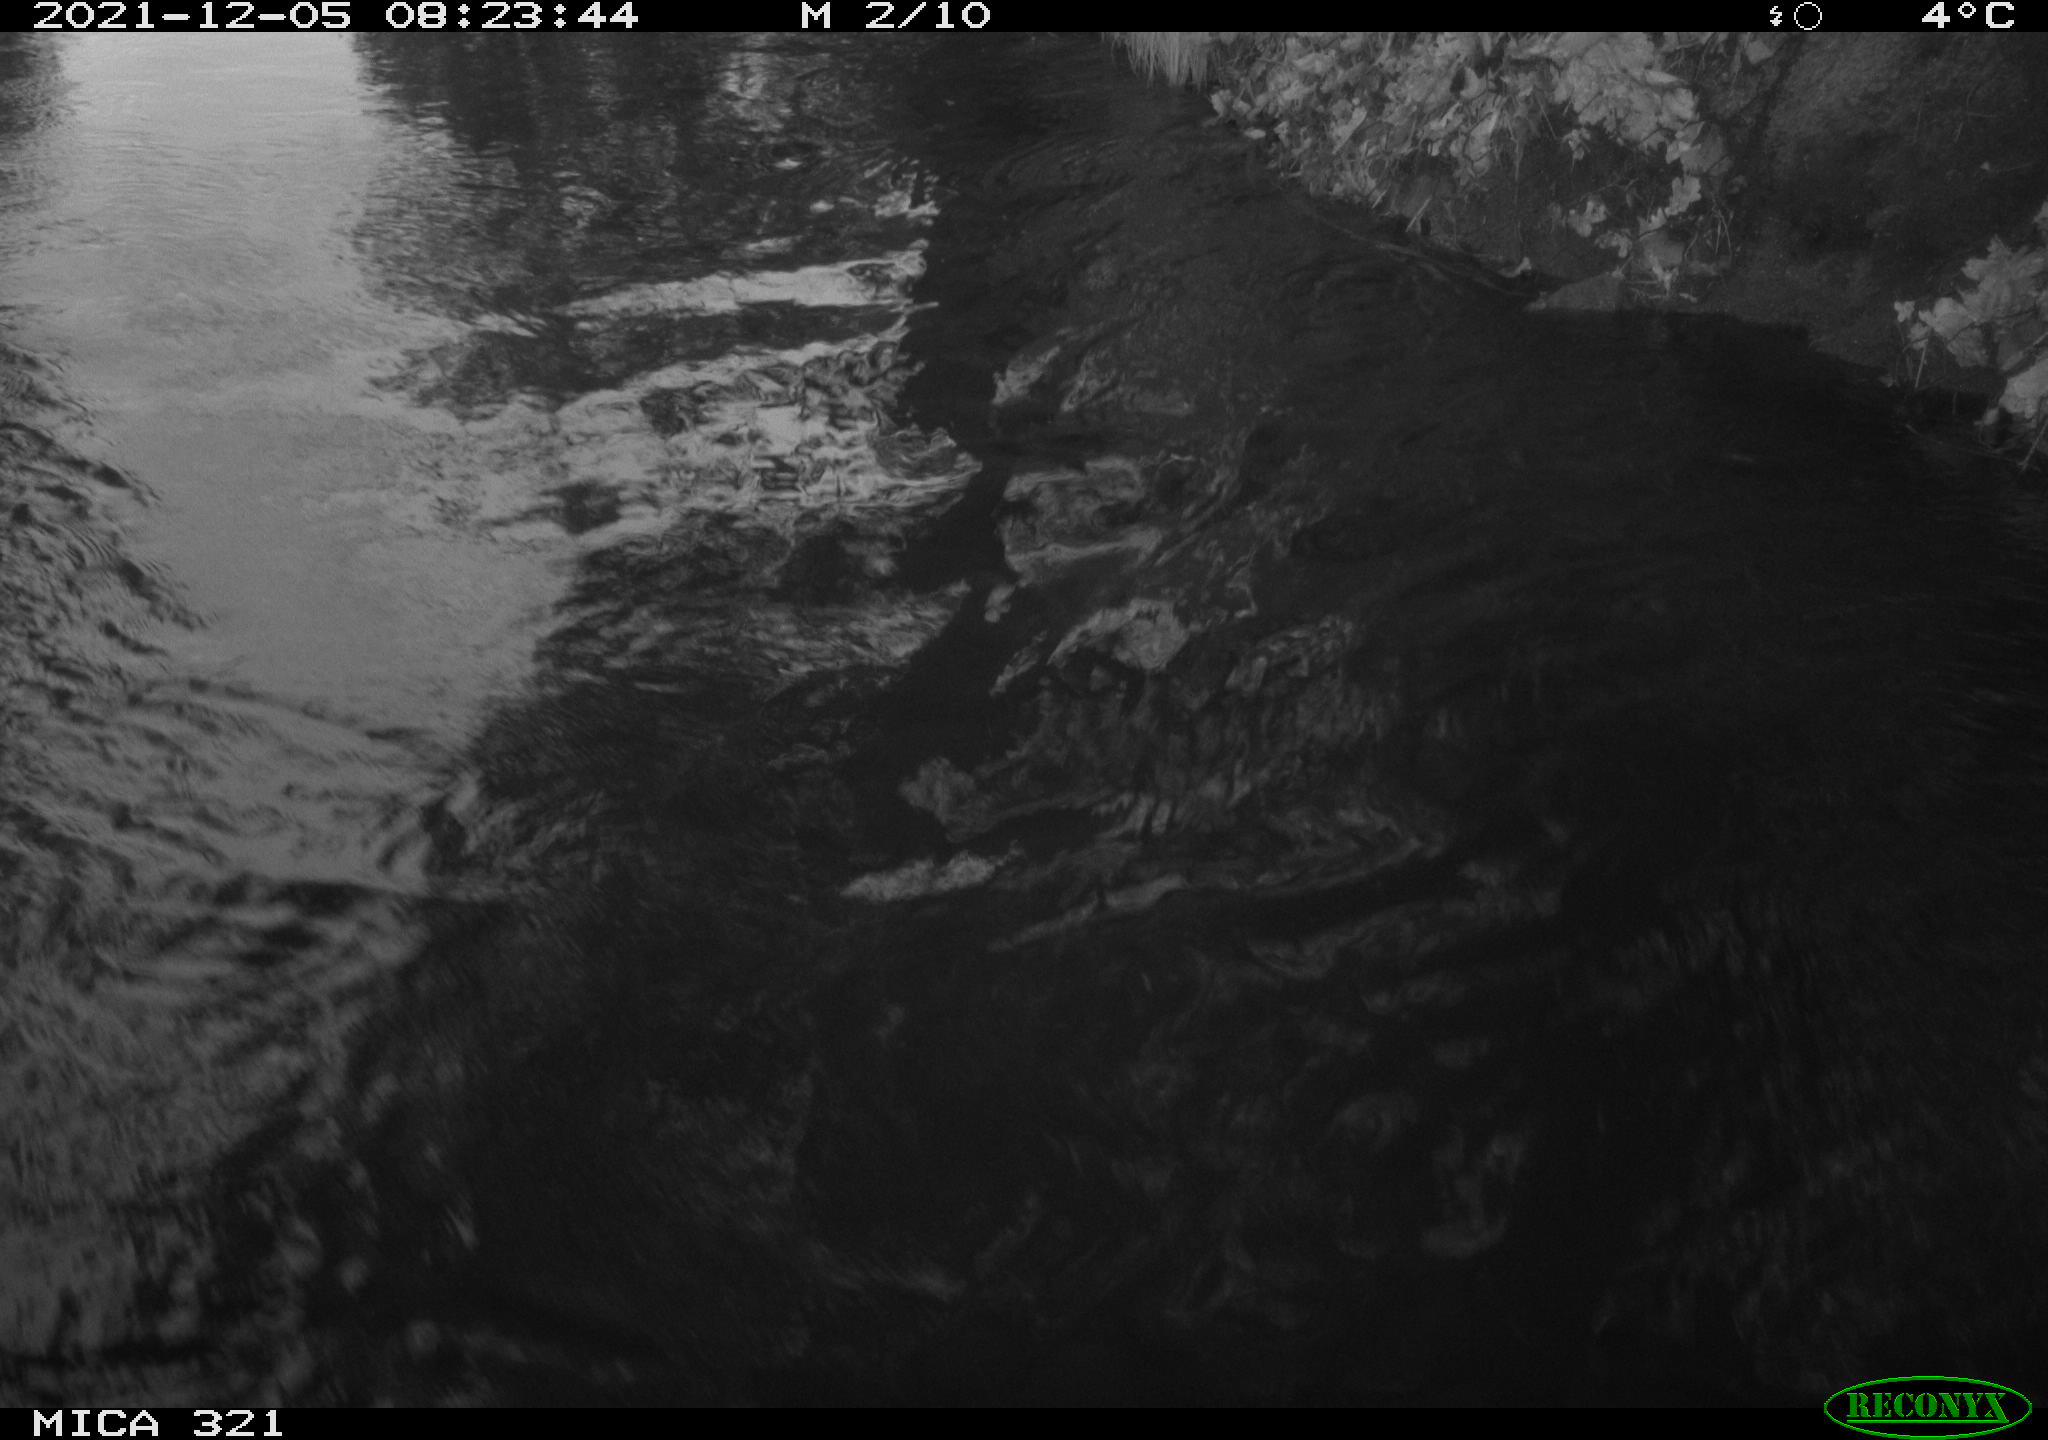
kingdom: Animalia
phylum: Chordata
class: Aves
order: Anseriformes
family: Anatidae
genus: Anas
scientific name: Anas platyrhynchos
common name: Mallard
